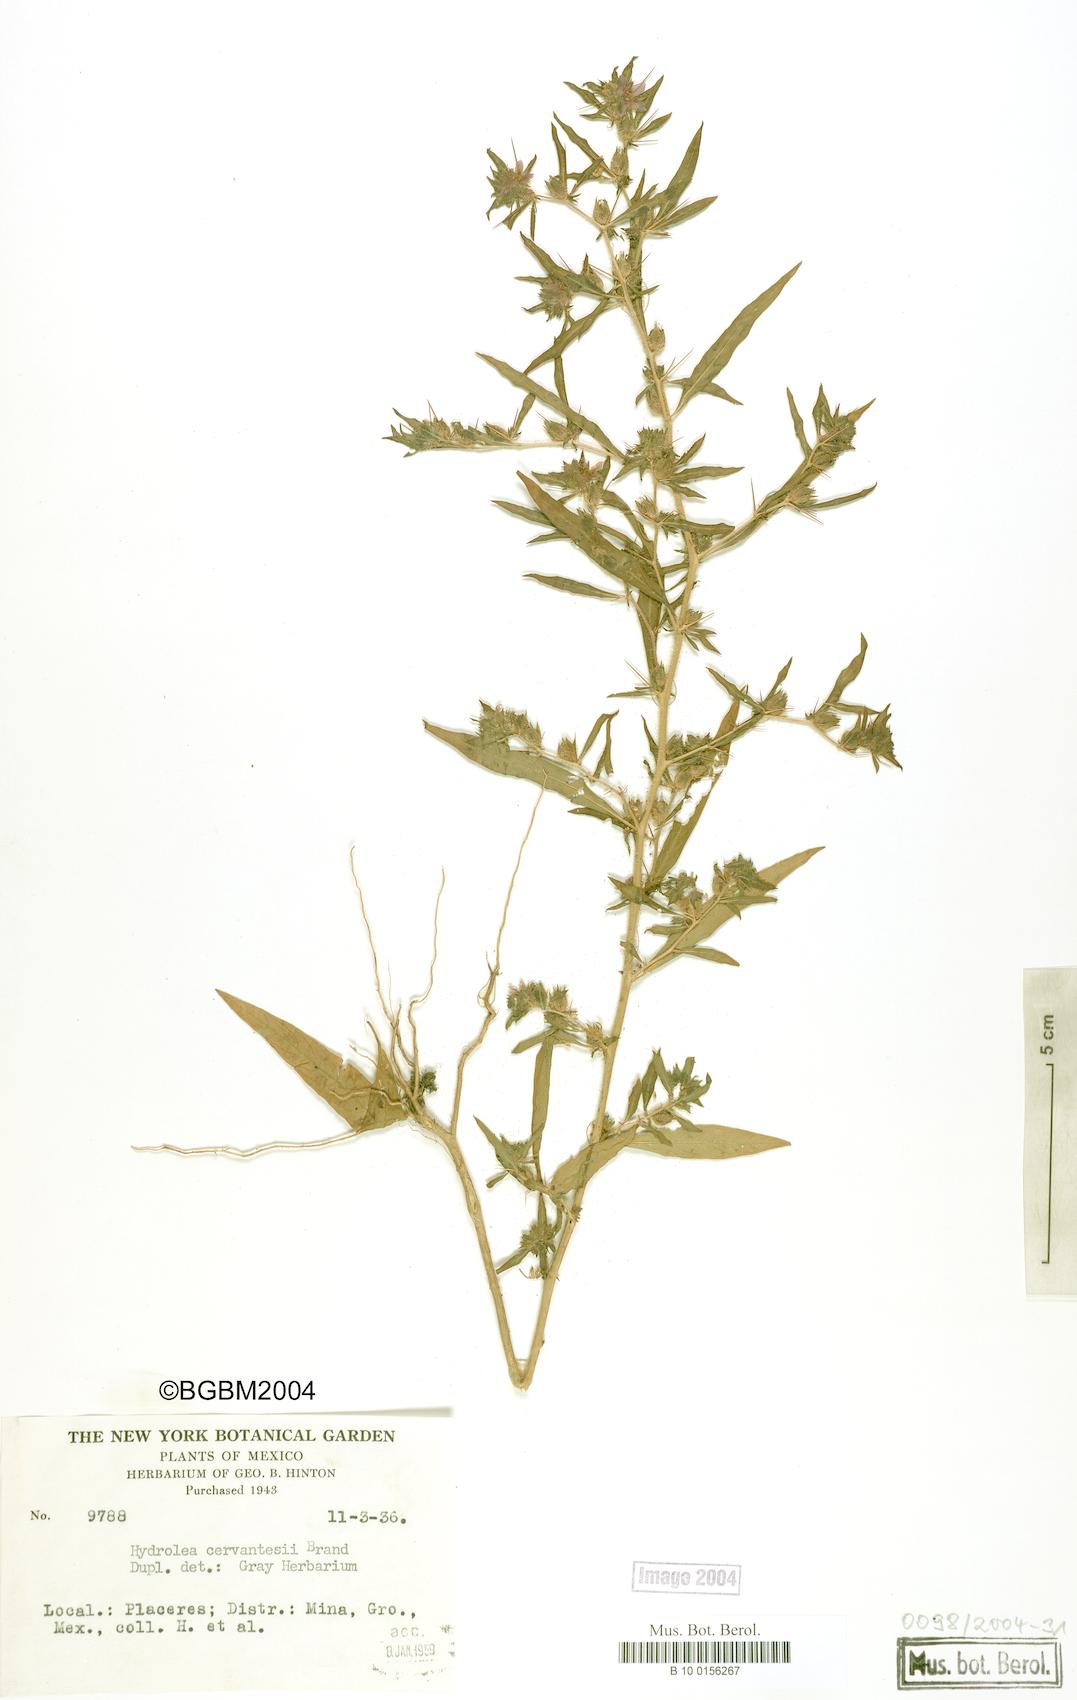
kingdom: Plantae
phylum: Tracheophyta
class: Magnoliopsida
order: Solanales
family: Hydroleaceae
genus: Hydrolea
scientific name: Hydrolea spinosa
